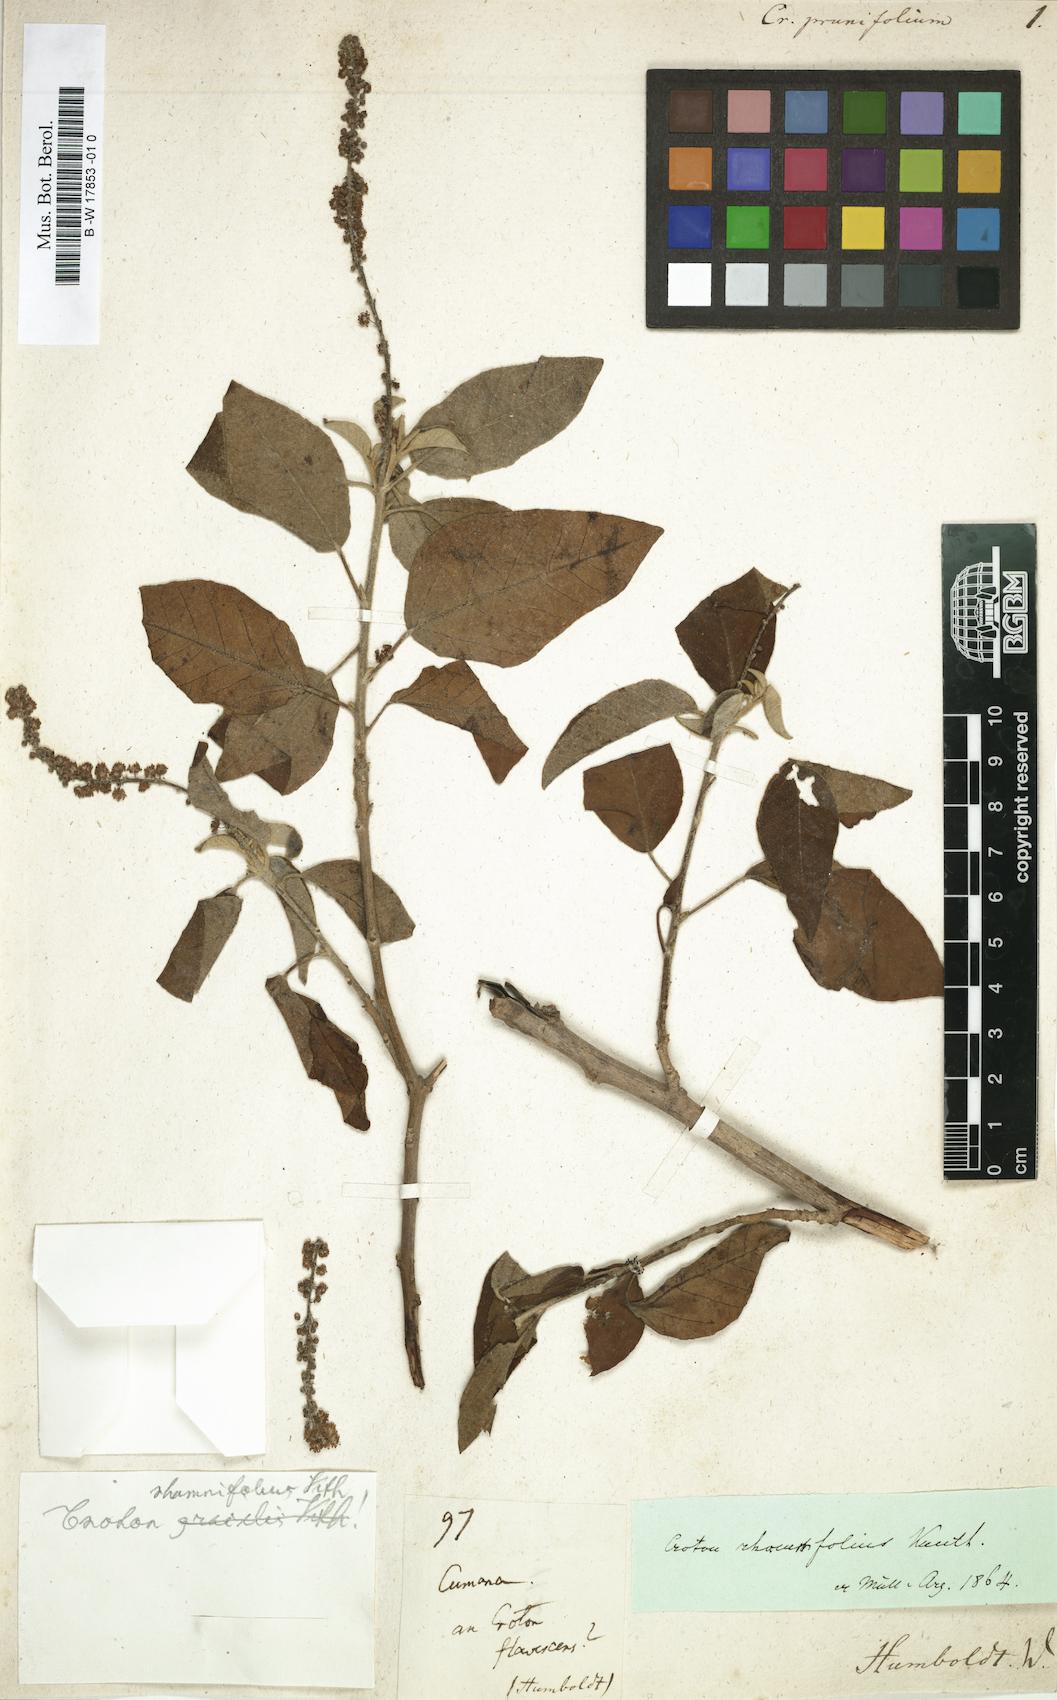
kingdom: Plantae
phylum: Tracheophyta
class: Magnoliopsida
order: Malpighiales
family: Euphorbiaceae
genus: Croton
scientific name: Croton
